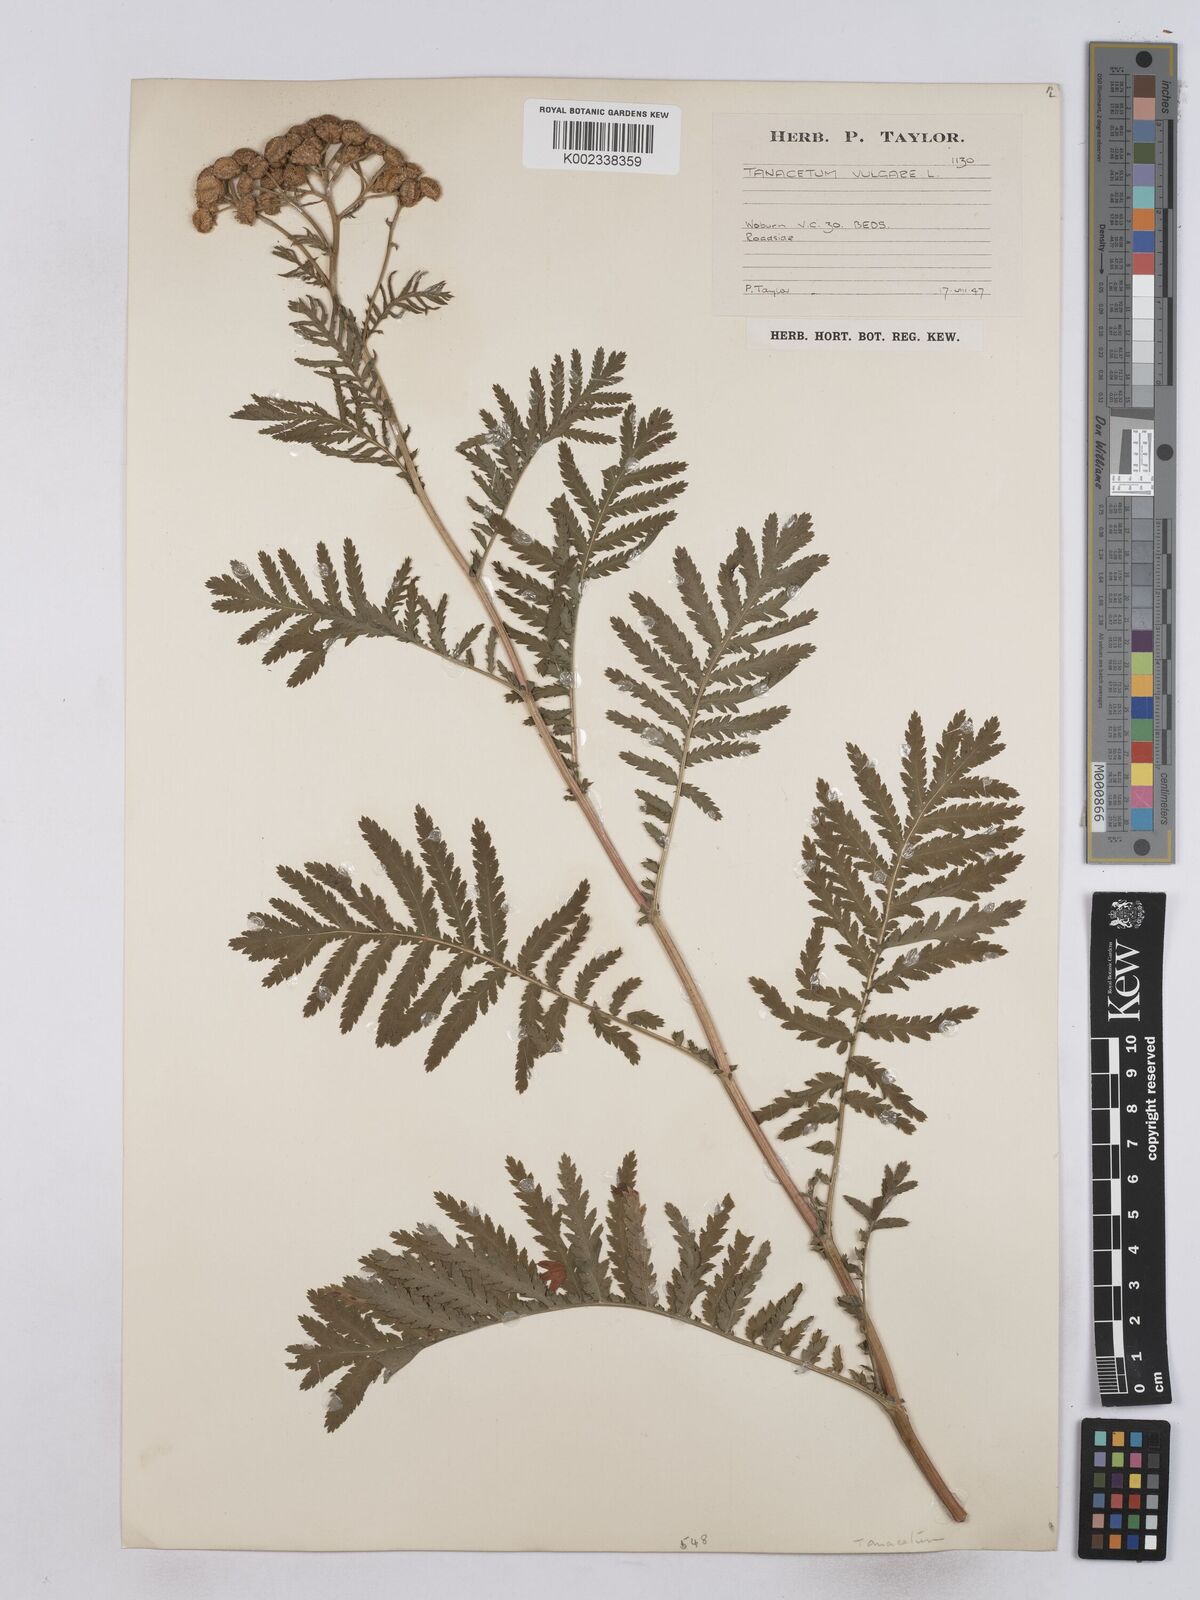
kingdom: Plantae
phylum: Tracheophyta
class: Magnoliopsida
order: Asterales
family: Asteraceae
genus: Tanacetum
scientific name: Tanacetum vulgare
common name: Common tansy
